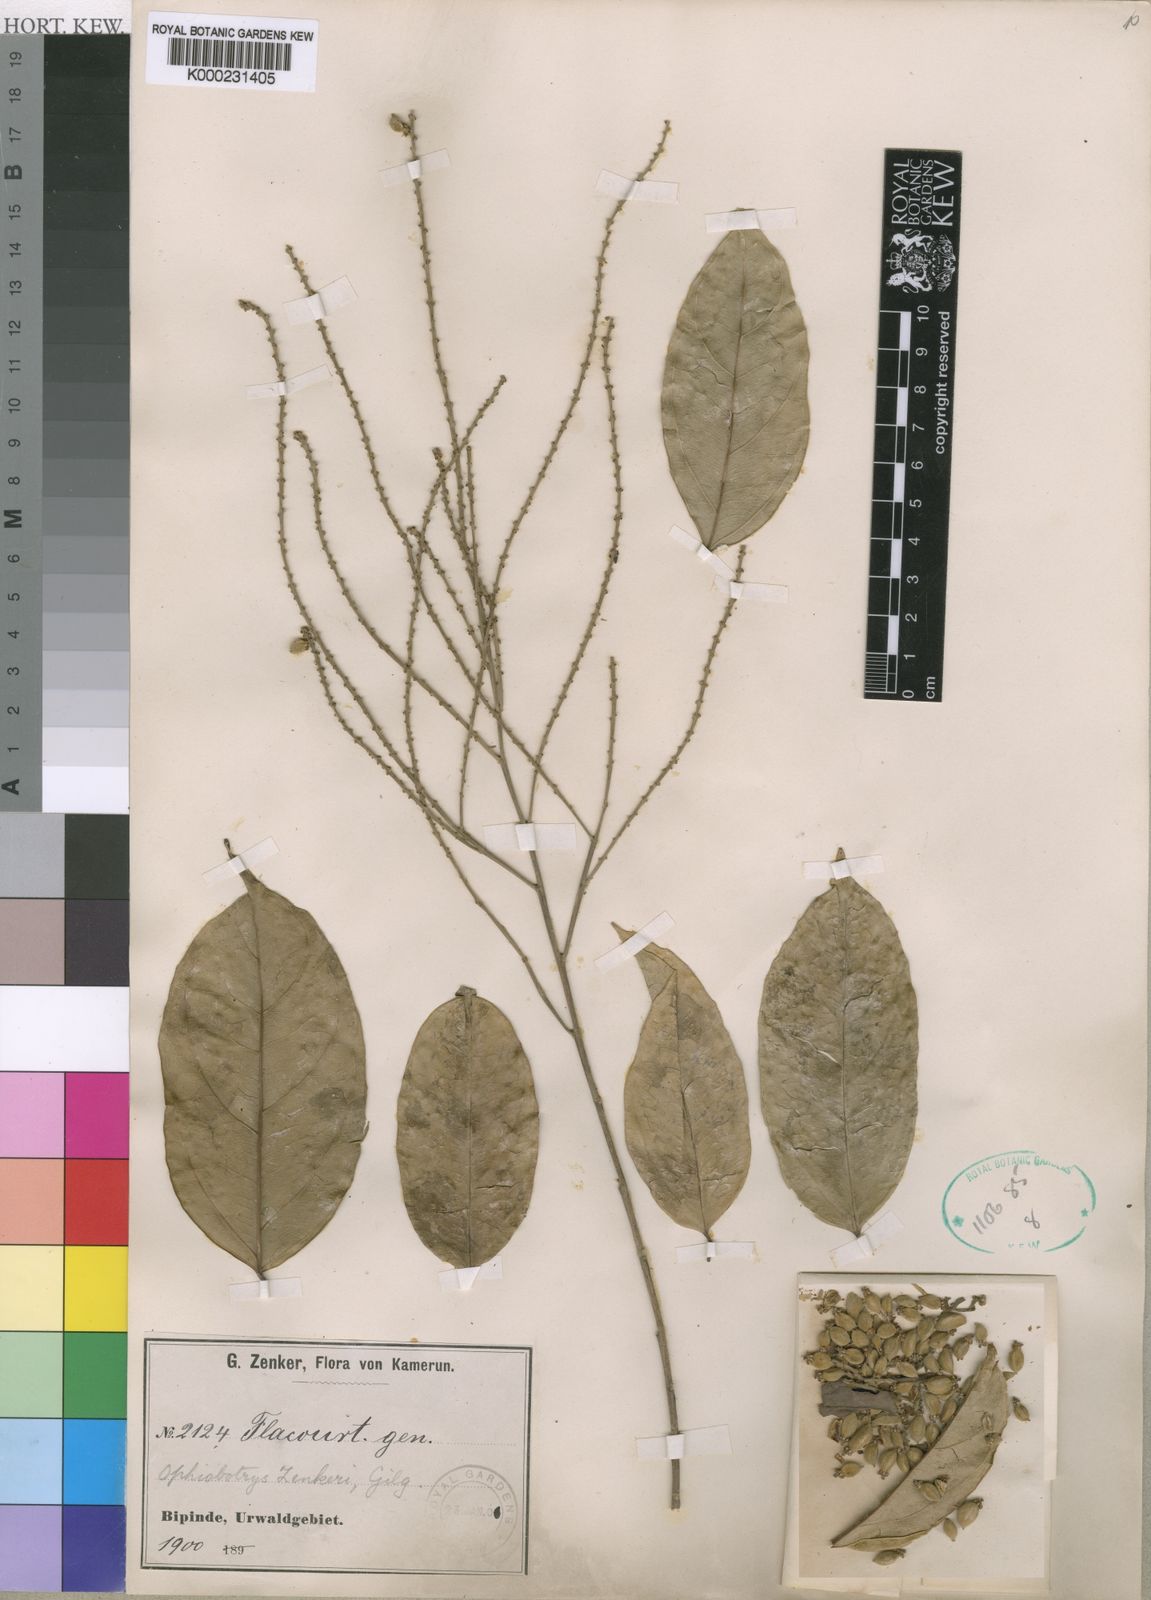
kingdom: Plantae
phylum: Tracheophyta
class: Magnoliopsida
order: Malpighiales
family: Salicaceae
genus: Ophiobotrys
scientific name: Ophiobotrys zenkeri
